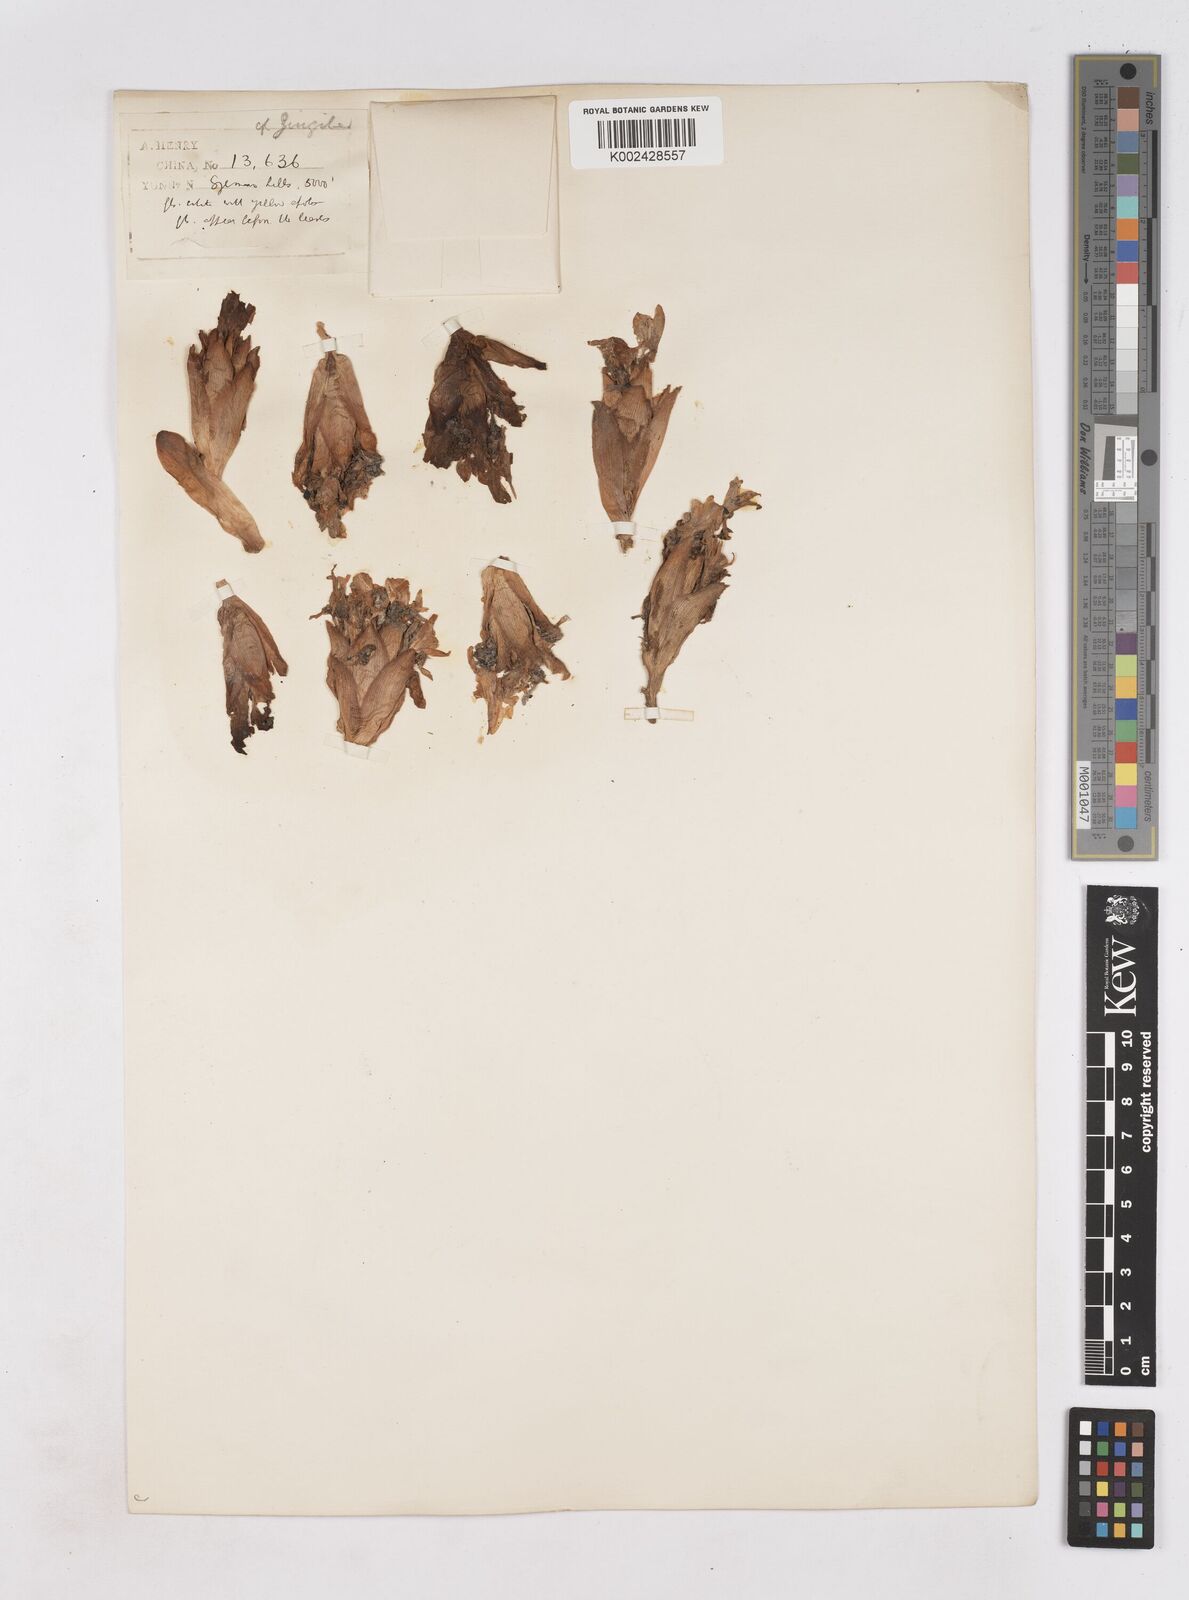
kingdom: Plantae
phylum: Tracheophyta
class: Liliopsida
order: Zingiberales
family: Zingiberaceae
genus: Zingiber
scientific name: Zingiber
